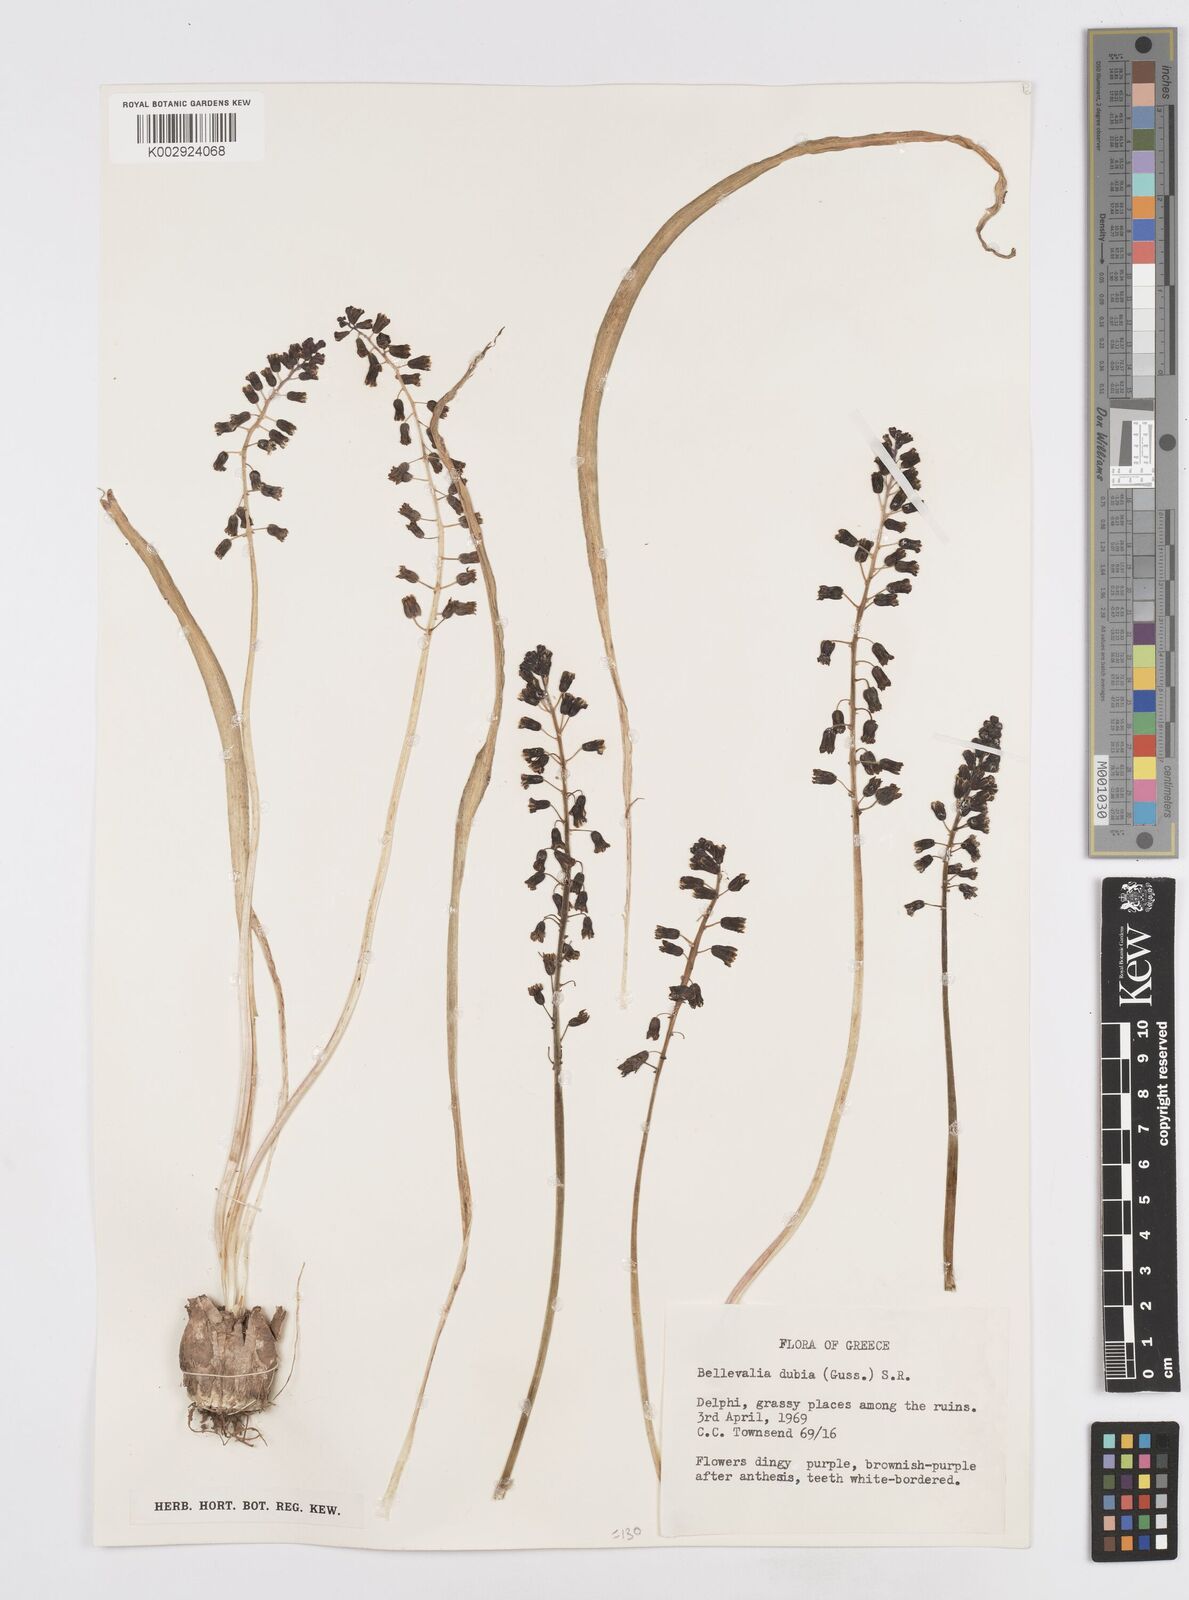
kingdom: Plantae
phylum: Tracheophyta
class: Liliopsida
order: Asparagales
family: Asparagaceae
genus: Bellevalia
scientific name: Bellevalia dubia
